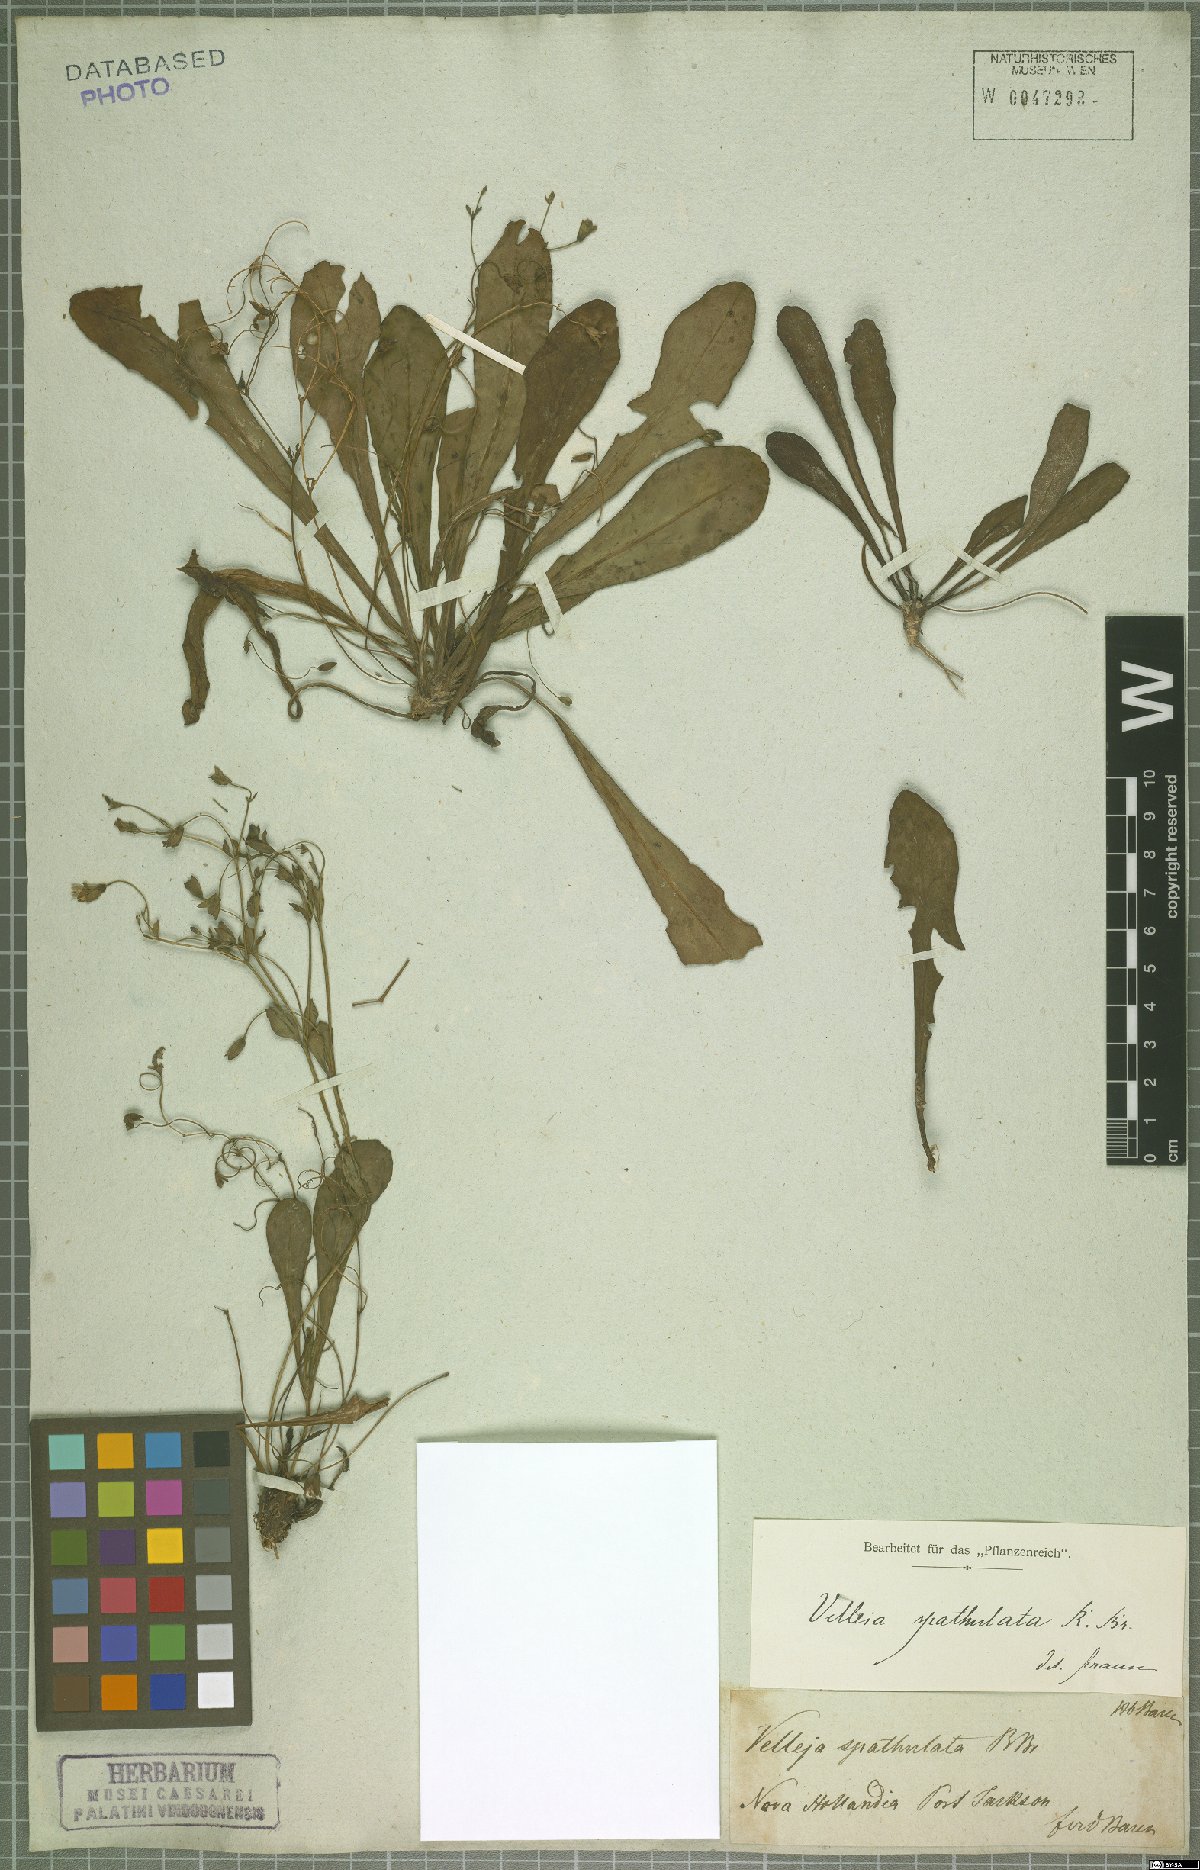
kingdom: Plantae
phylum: Tracheophyta
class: Magnoliopsida
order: Asterales
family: Goodeniaceae
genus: Goodenia
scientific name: Goodenia mystrophylla
